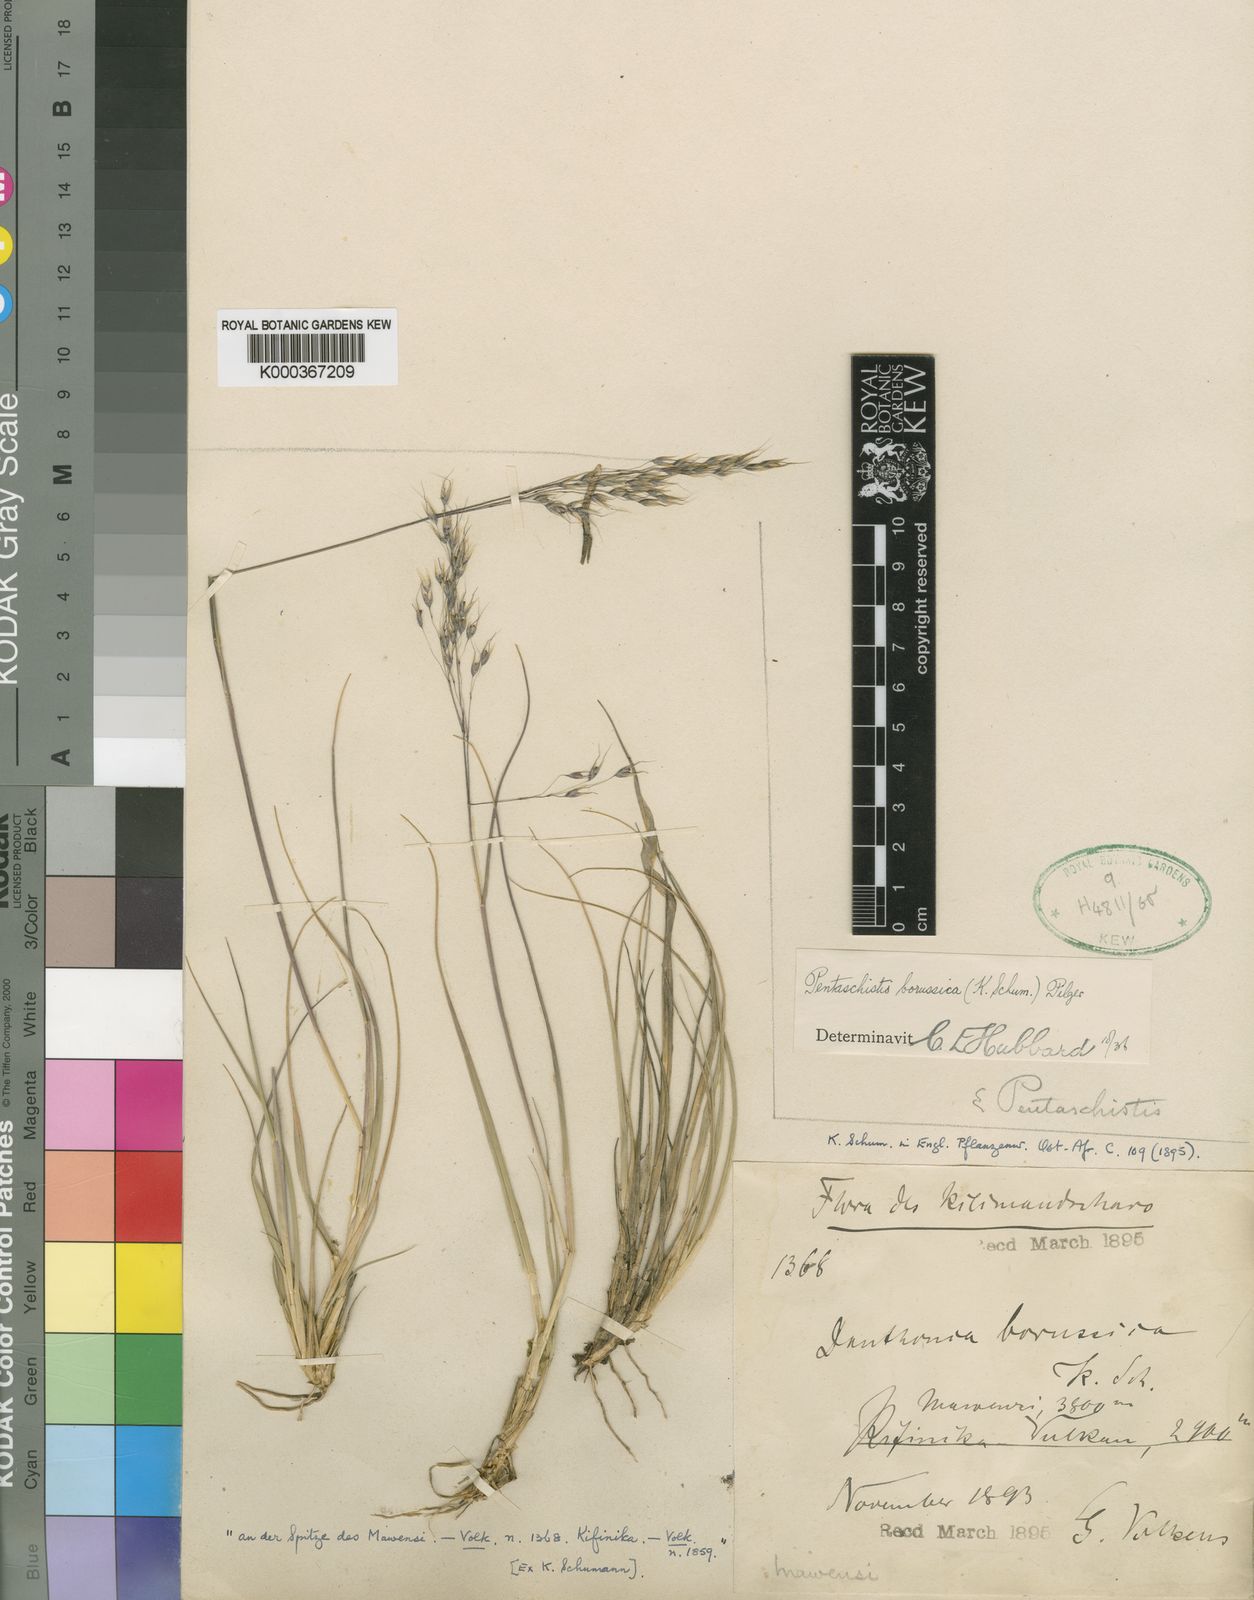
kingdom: Plantae
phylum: Tracheophyta
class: Liliopsida
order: Poales
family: Poaceae
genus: Pentameris
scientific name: Pentameris borussica
